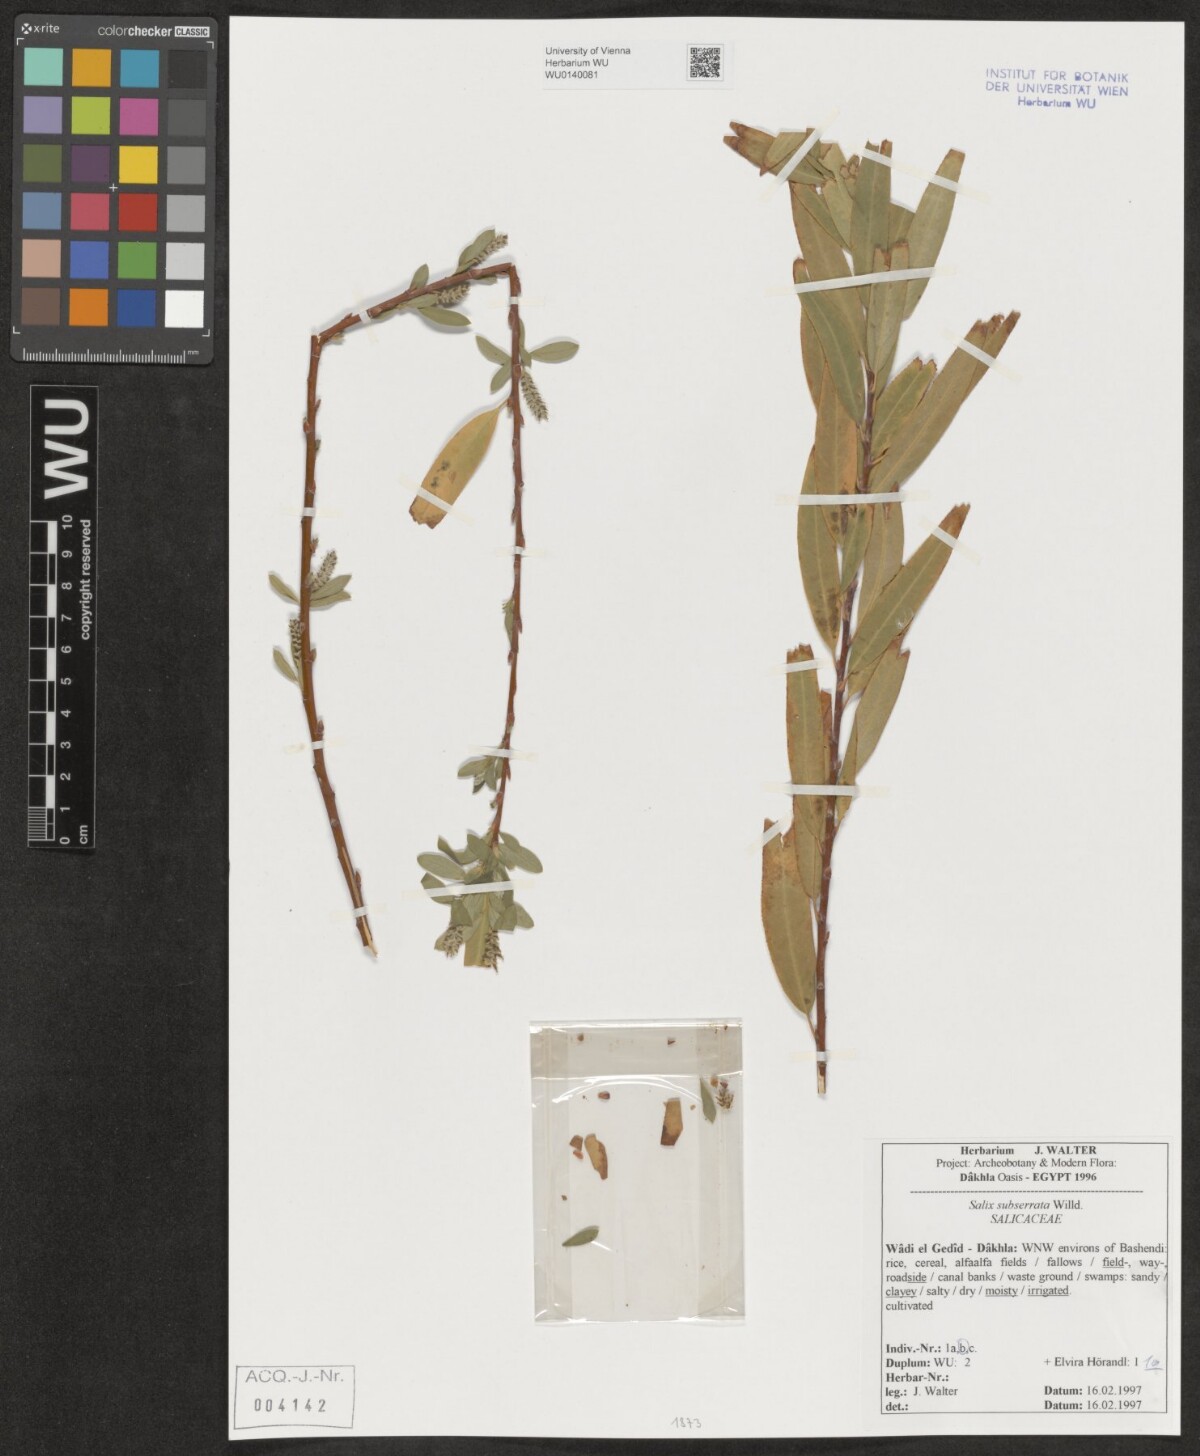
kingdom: Plantae
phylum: Tracheophyta
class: Magnoliopsida
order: Malpighiales
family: Salicaceae
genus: Salix
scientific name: Salix mucronata
